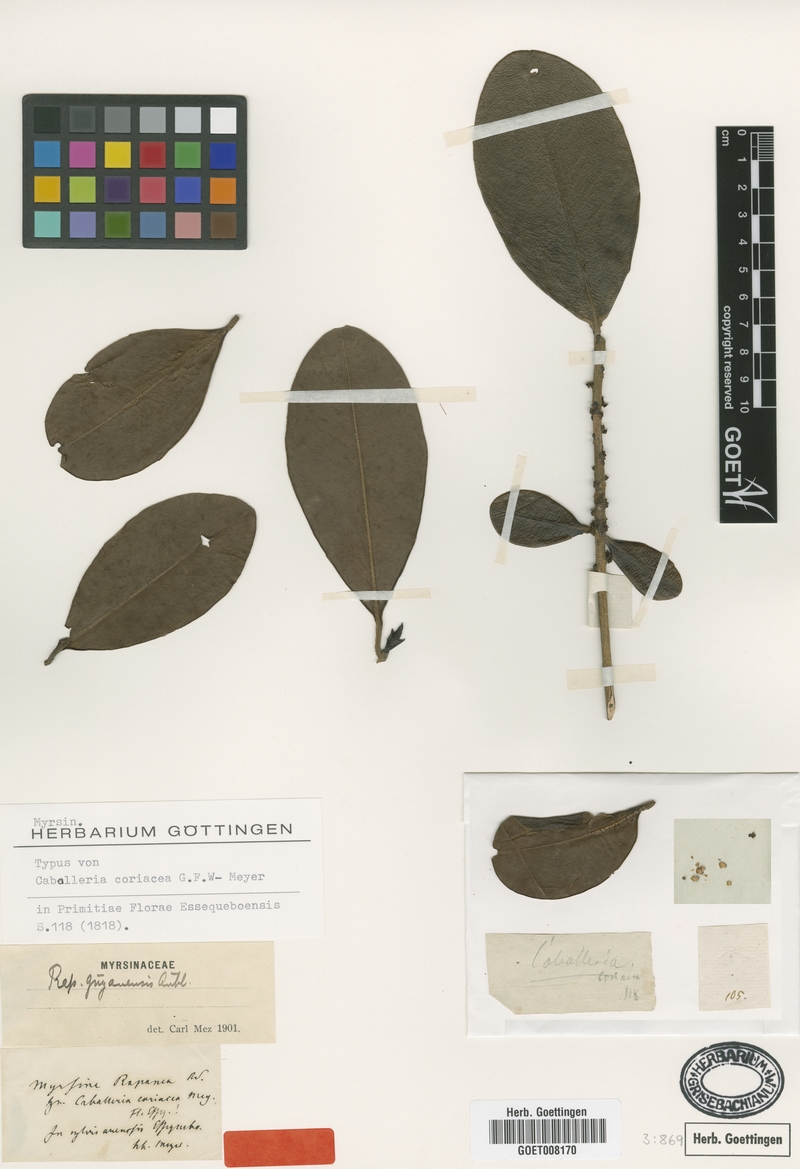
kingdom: Plantae
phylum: Tracheophyta
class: Magnoliopsida
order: Ericales
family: Primulaceae
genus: Myrsine
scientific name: Myrsine guianensis
